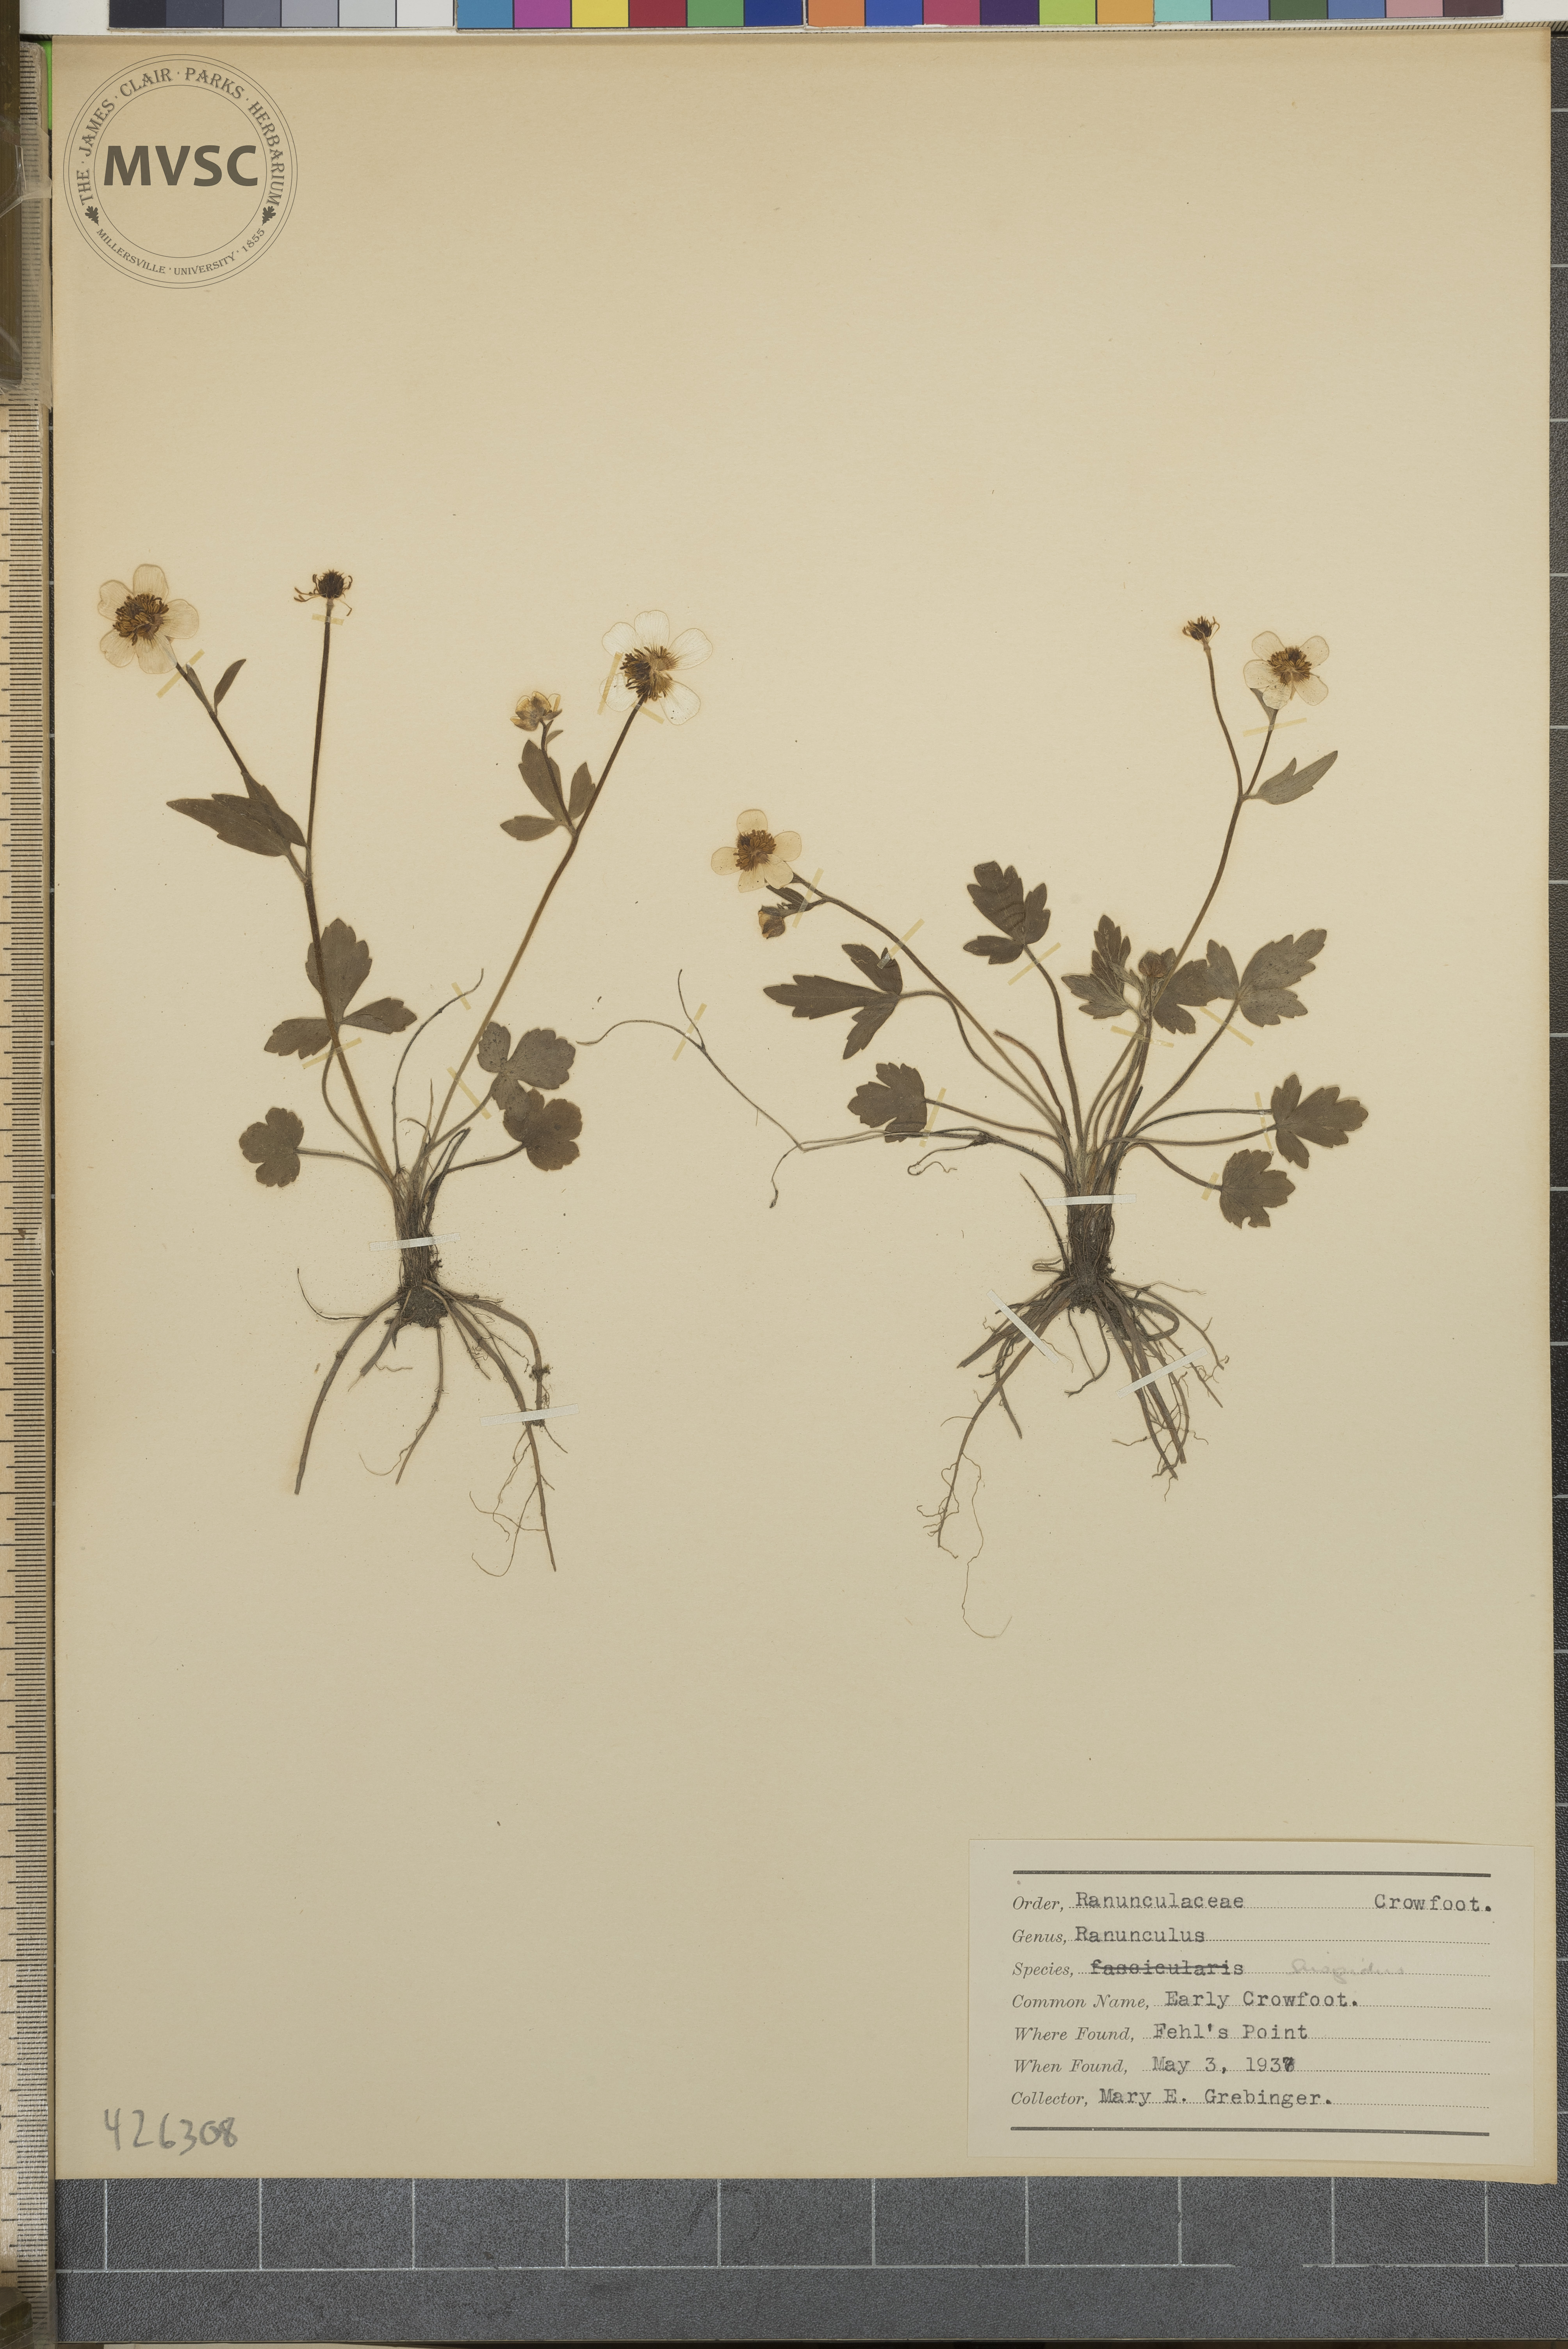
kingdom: Plantae
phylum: Tracheophyta
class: Magnoliopsida
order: Ranunculales
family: Ranunculaceae
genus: Ranunculus
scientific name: Ranunculus fascicularis
